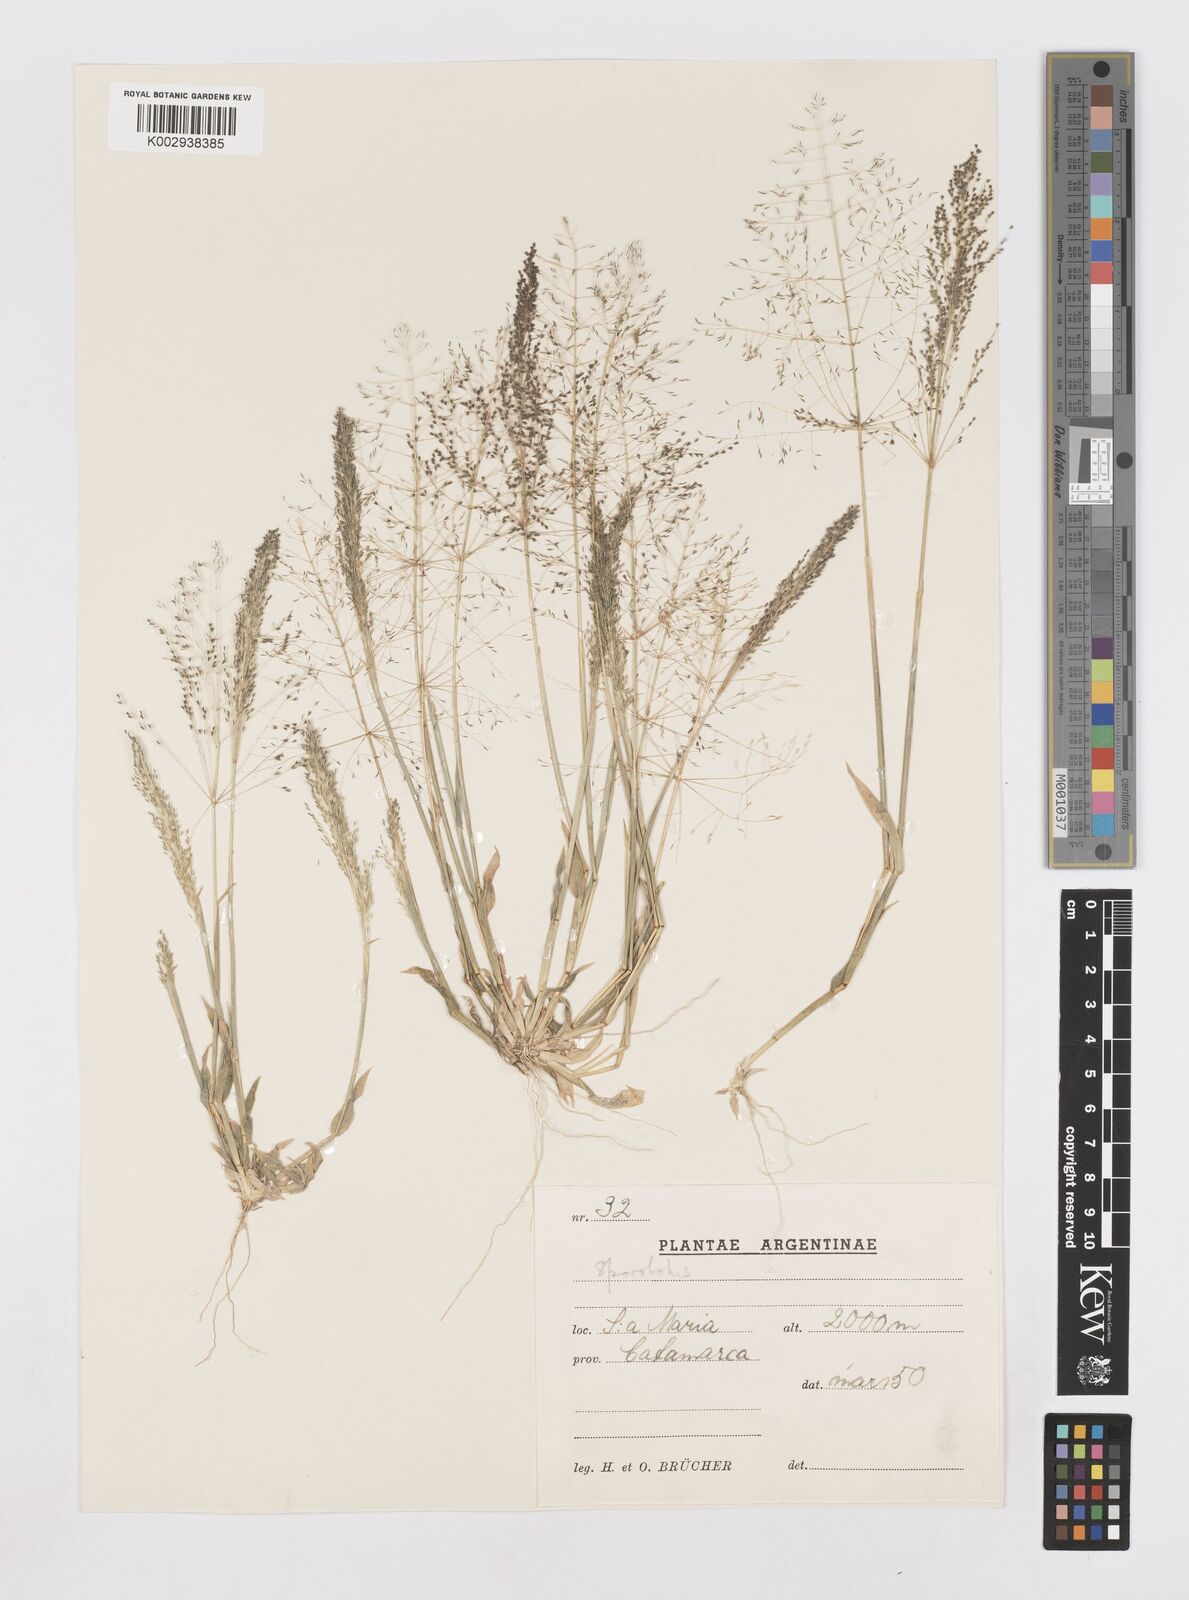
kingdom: Plantae
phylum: Tracheophyta
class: Liliopsida
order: Poales
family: Poaceae
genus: Sporobolus
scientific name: Sporobolus pyramidatus
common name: Whorled dropseed
